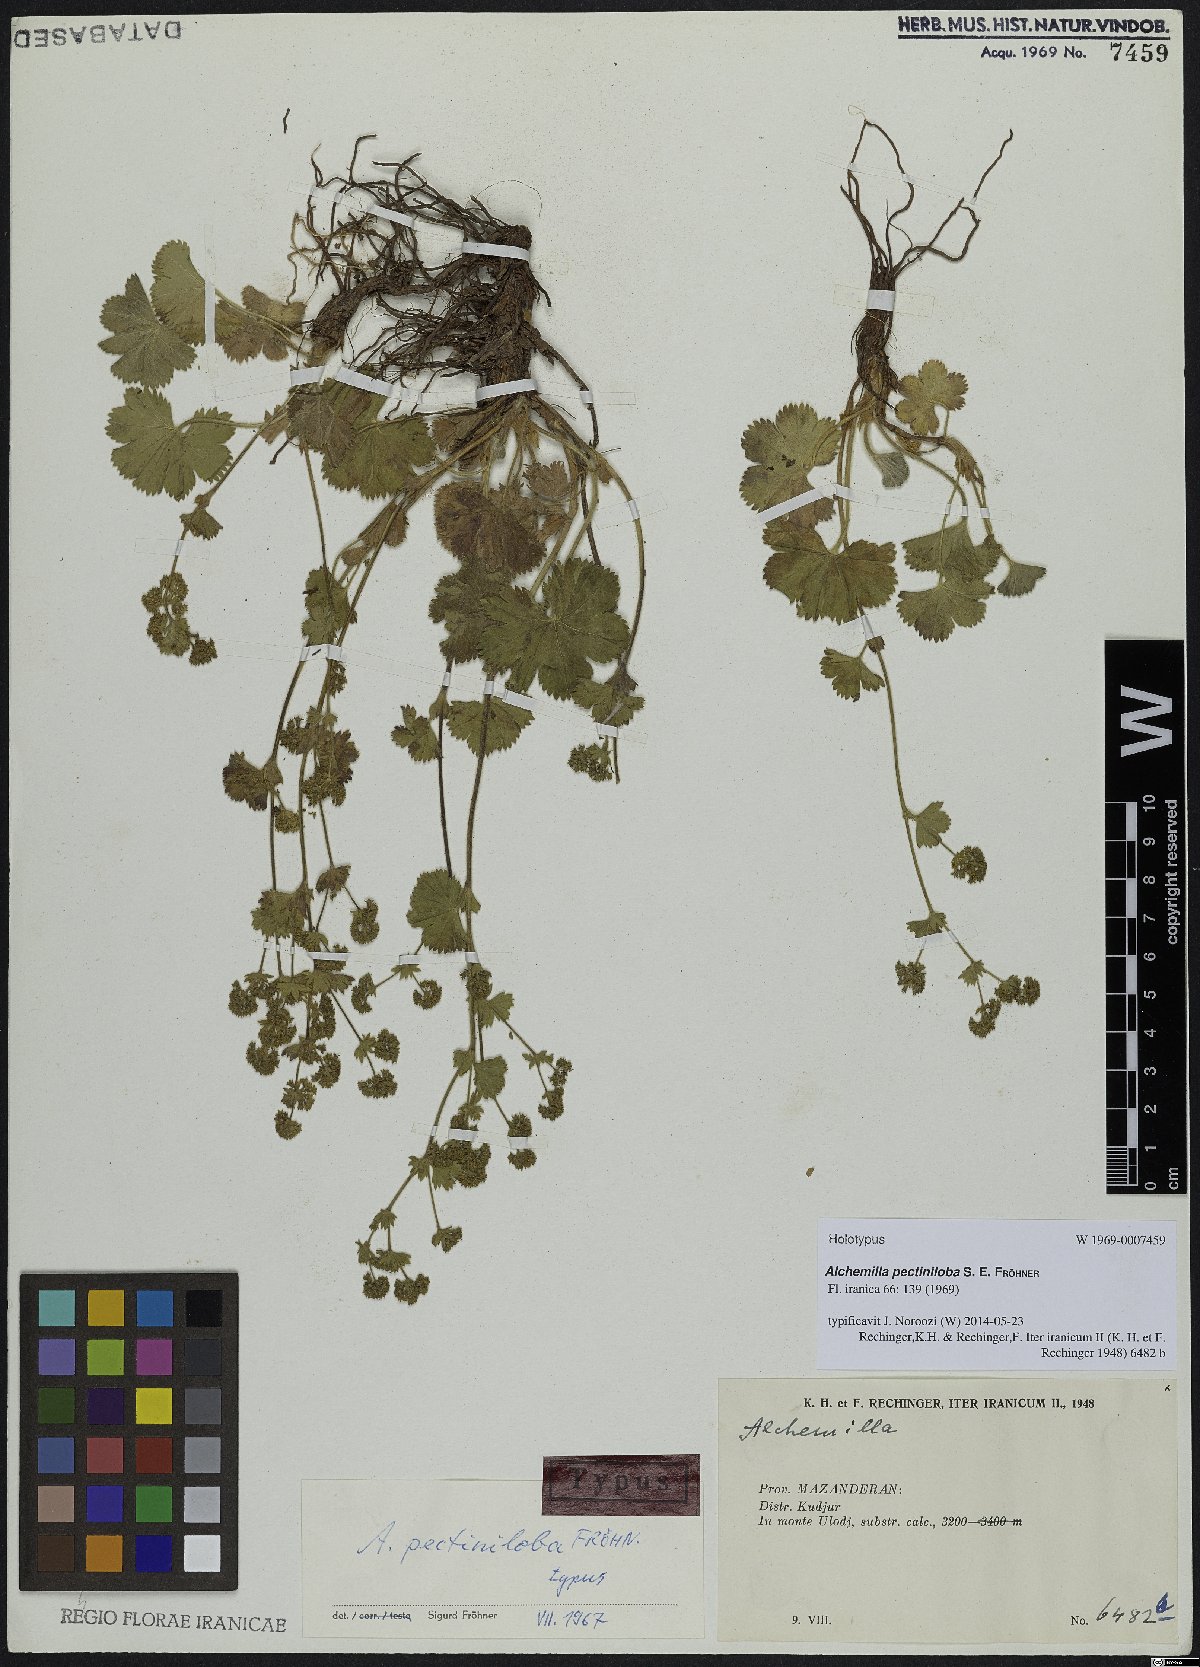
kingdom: Plantae
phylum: Tracheophyta
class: Magnoliopsida
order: Rosales
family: Rosaceae
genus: Alchemilla
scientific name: Alchemilla pectiniloba
